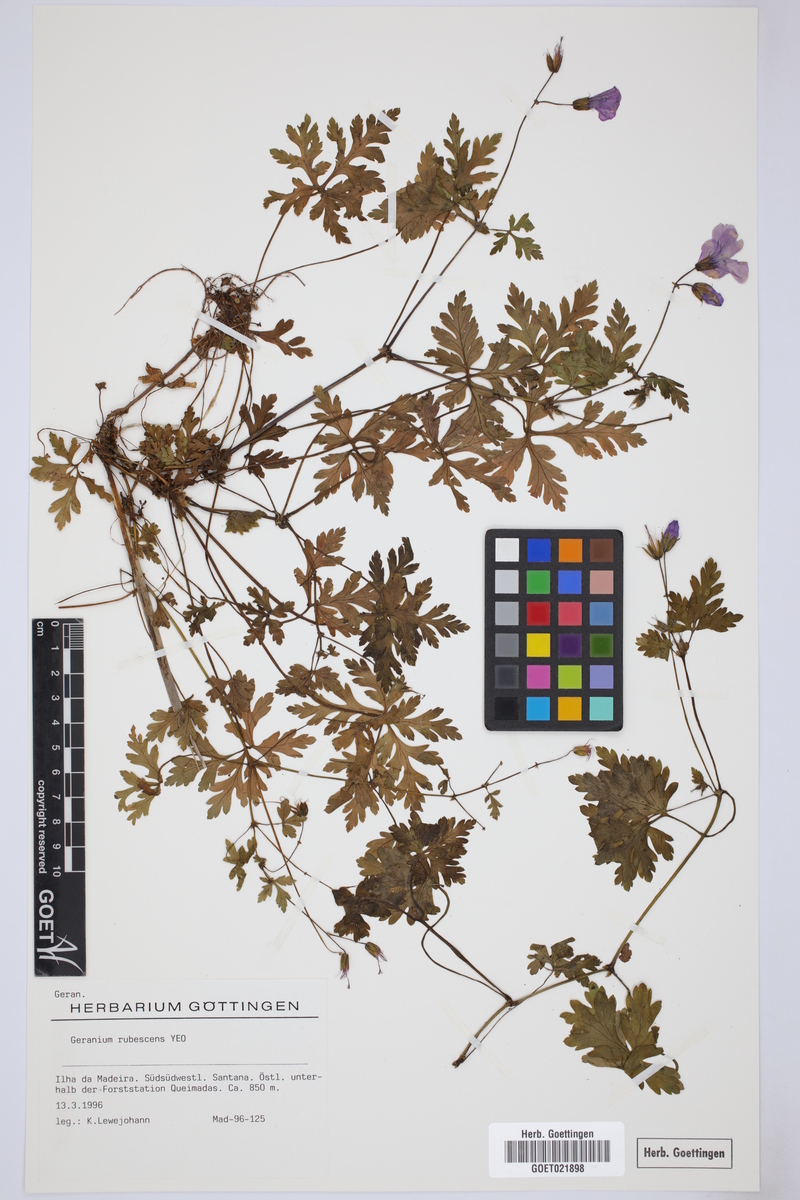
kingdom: Plantae
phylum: Tracheophyta
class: Magnoliopsida
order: Geraniales
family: Geraniaceae
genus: Geranium
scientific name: Geranium yeoi
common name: Greater herb robert
